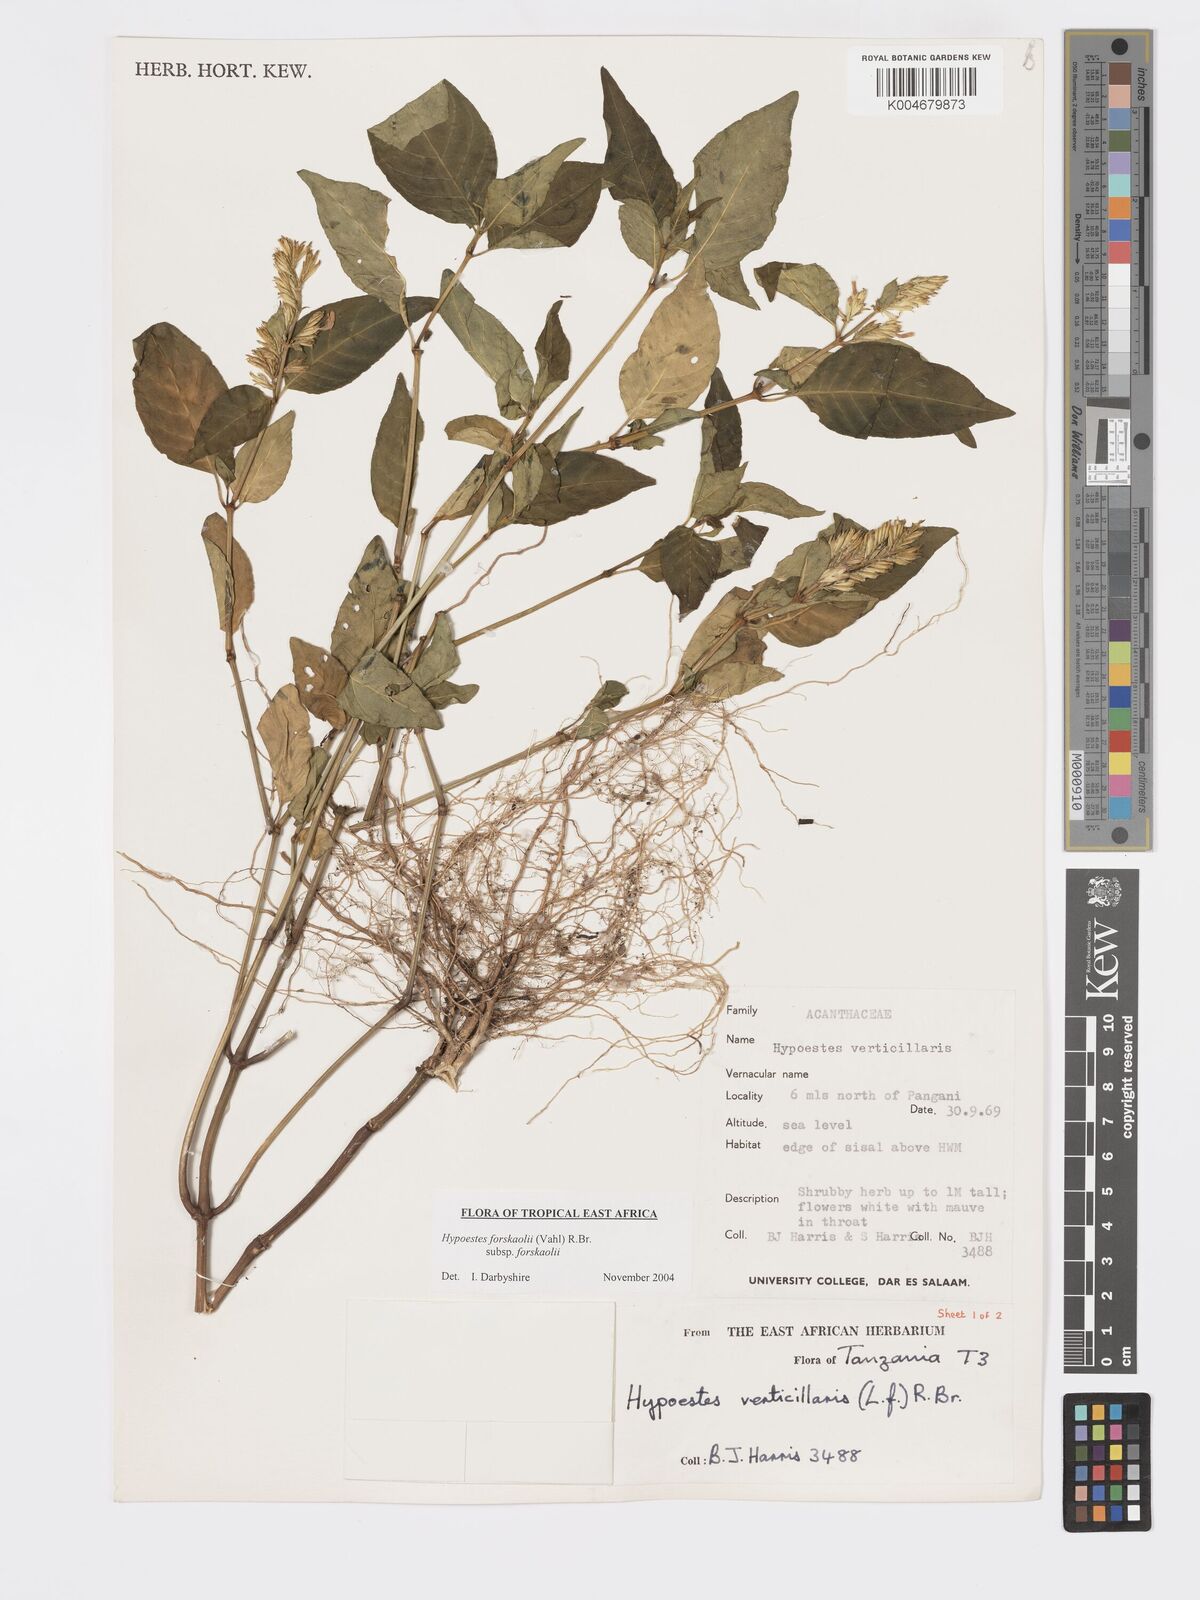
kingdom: Plantae
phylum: Tracheophyta
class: Magnoliopsida
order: Lamiales
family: Acanthaceae
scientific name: Acanthaceae
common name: Acanthaceae
